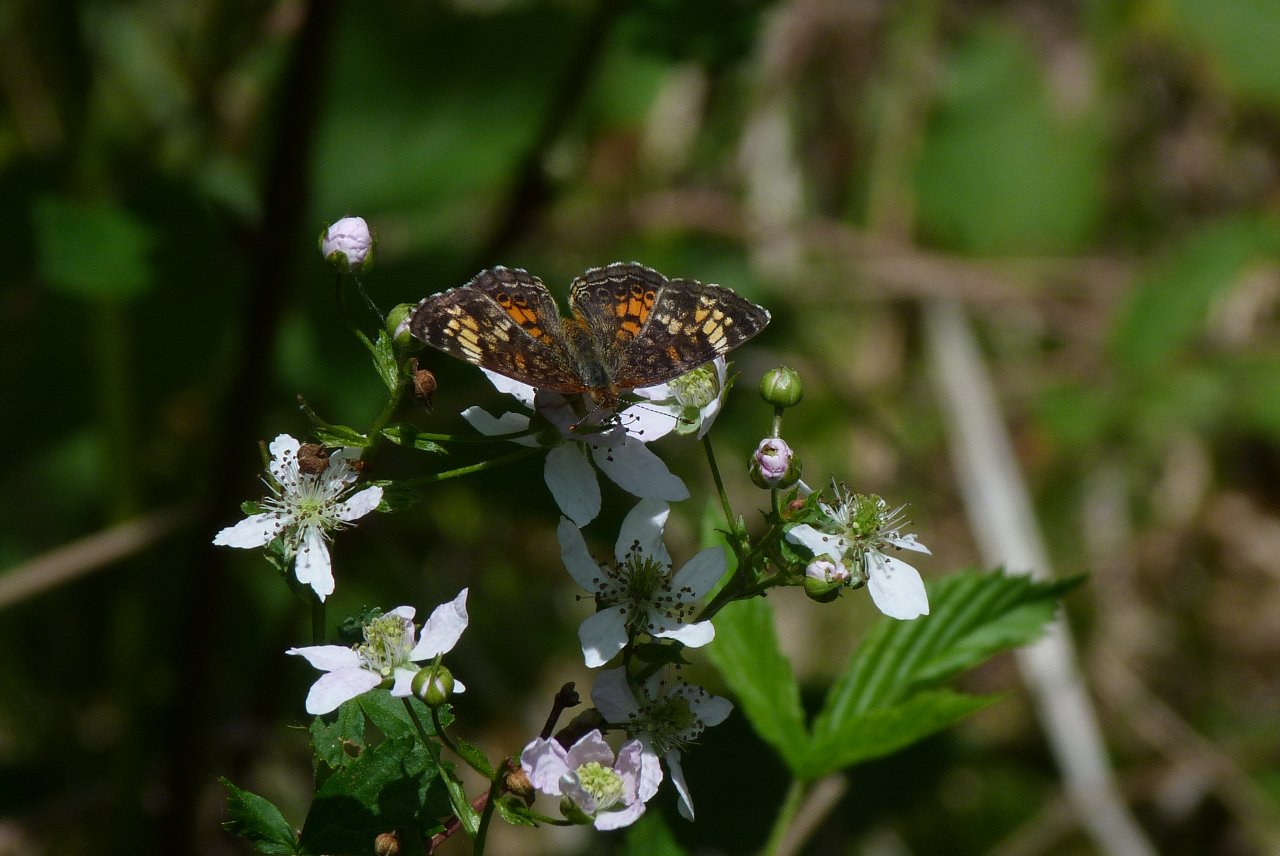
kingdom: Animalia
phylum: Arthropoda
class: Insecta
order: Lepidoptera
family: Nymphalidae
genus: Phyciodes
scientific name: Phyciodes tharos
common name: Pearl Crescent
